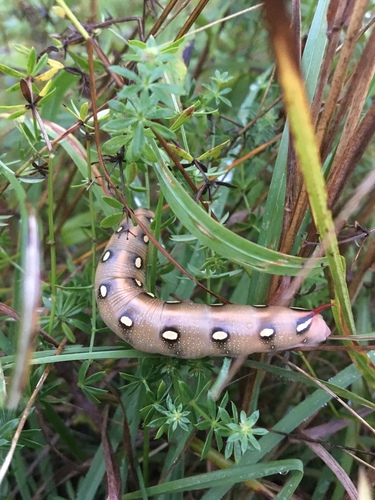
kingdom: Animalia
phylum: Arthropoda
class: Insecta
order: Lepidoptera
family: Sphingidae
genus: Hyles
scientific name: Hyles gallii
